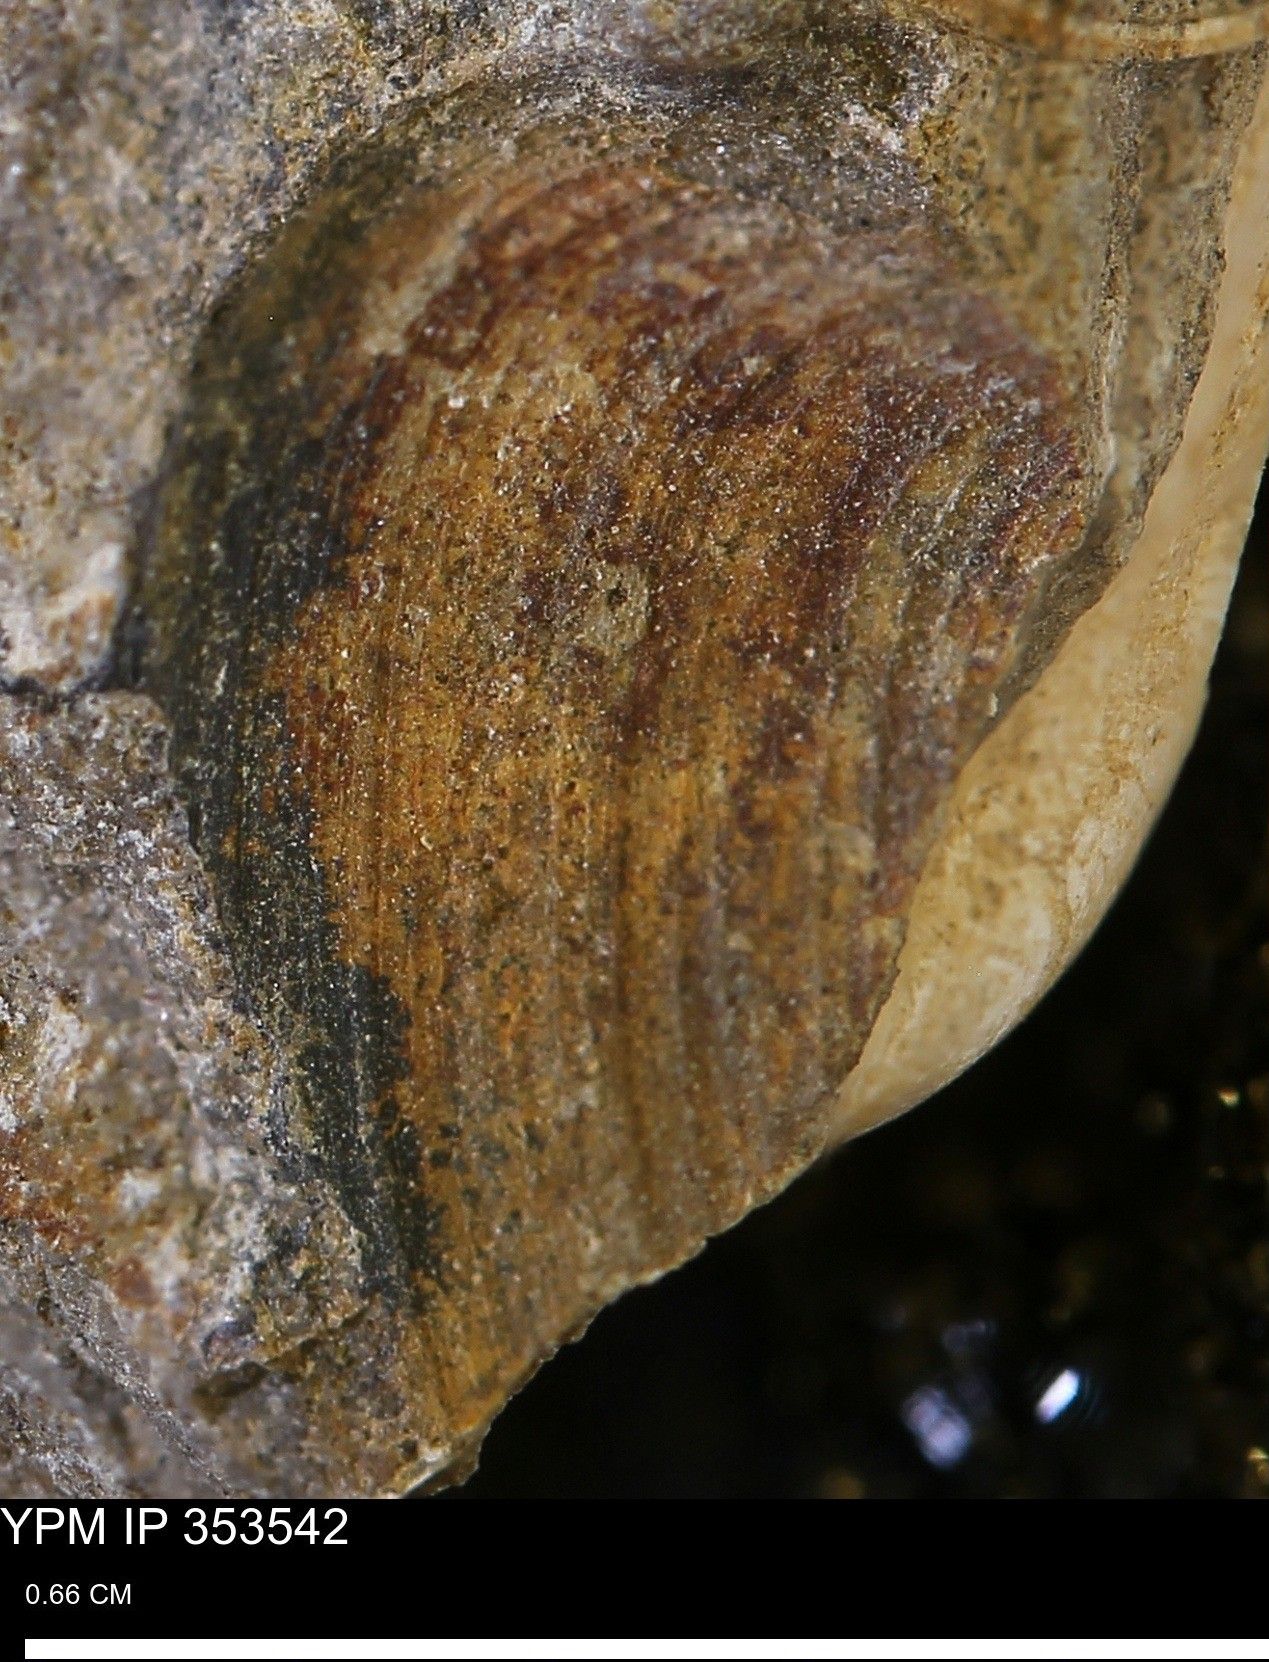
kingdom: Animalia
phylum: Mollusca
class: Bivalvia
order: Arcida
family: Limopsidae
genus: Limopsis
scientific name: Limopsis
